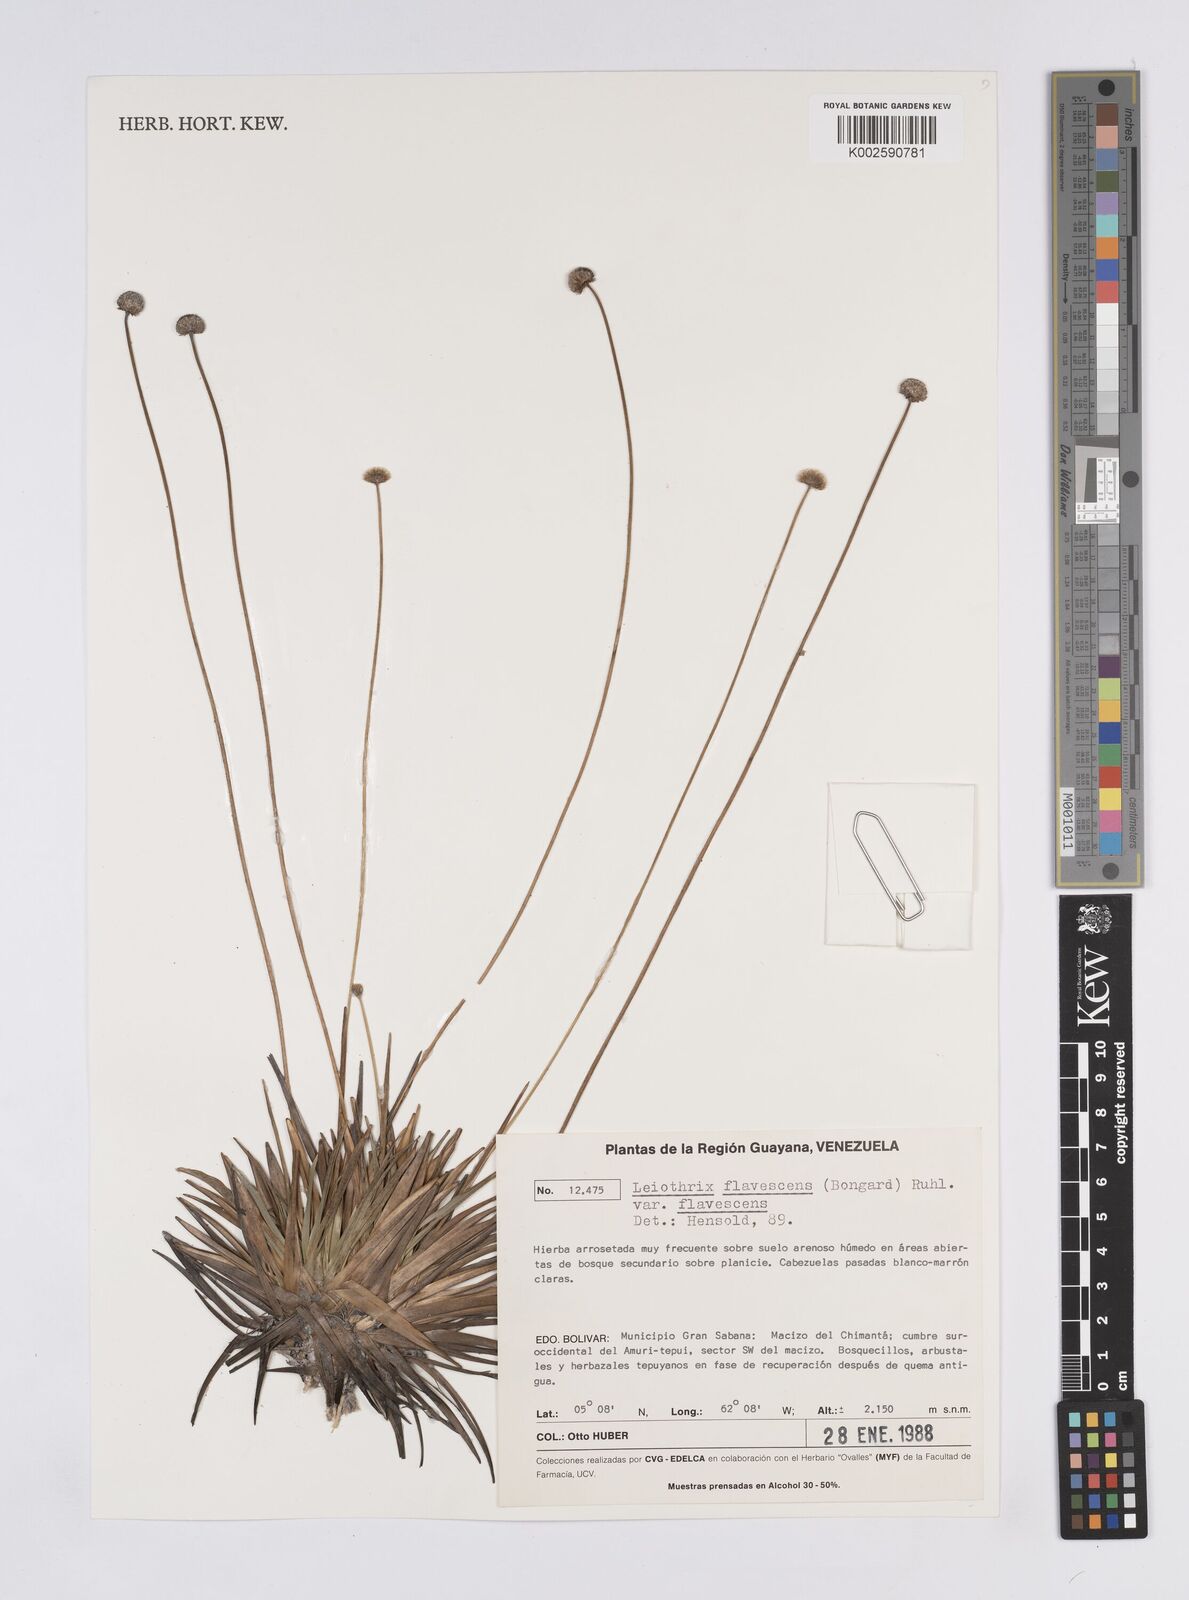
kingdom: Plantae
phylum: Tracheophyta
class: Liliopsida
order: Poales
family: Eriocaulaceae
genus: Leiothrix
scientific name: Leiothrix flavescens
